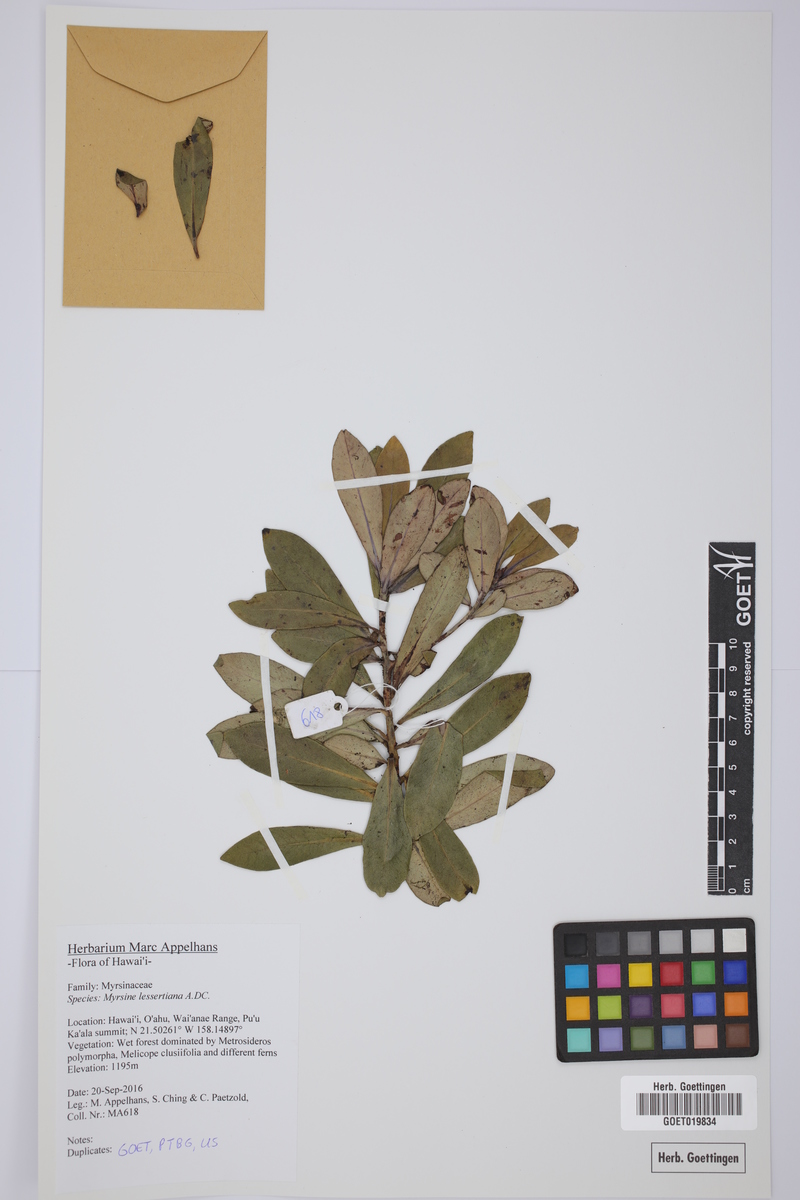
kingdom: Plantae
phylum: Tracheophyta
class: Magnoliopsida
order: Ericales
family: Primulaceae
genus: Myrsine
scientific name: Myrsine lessertiana
